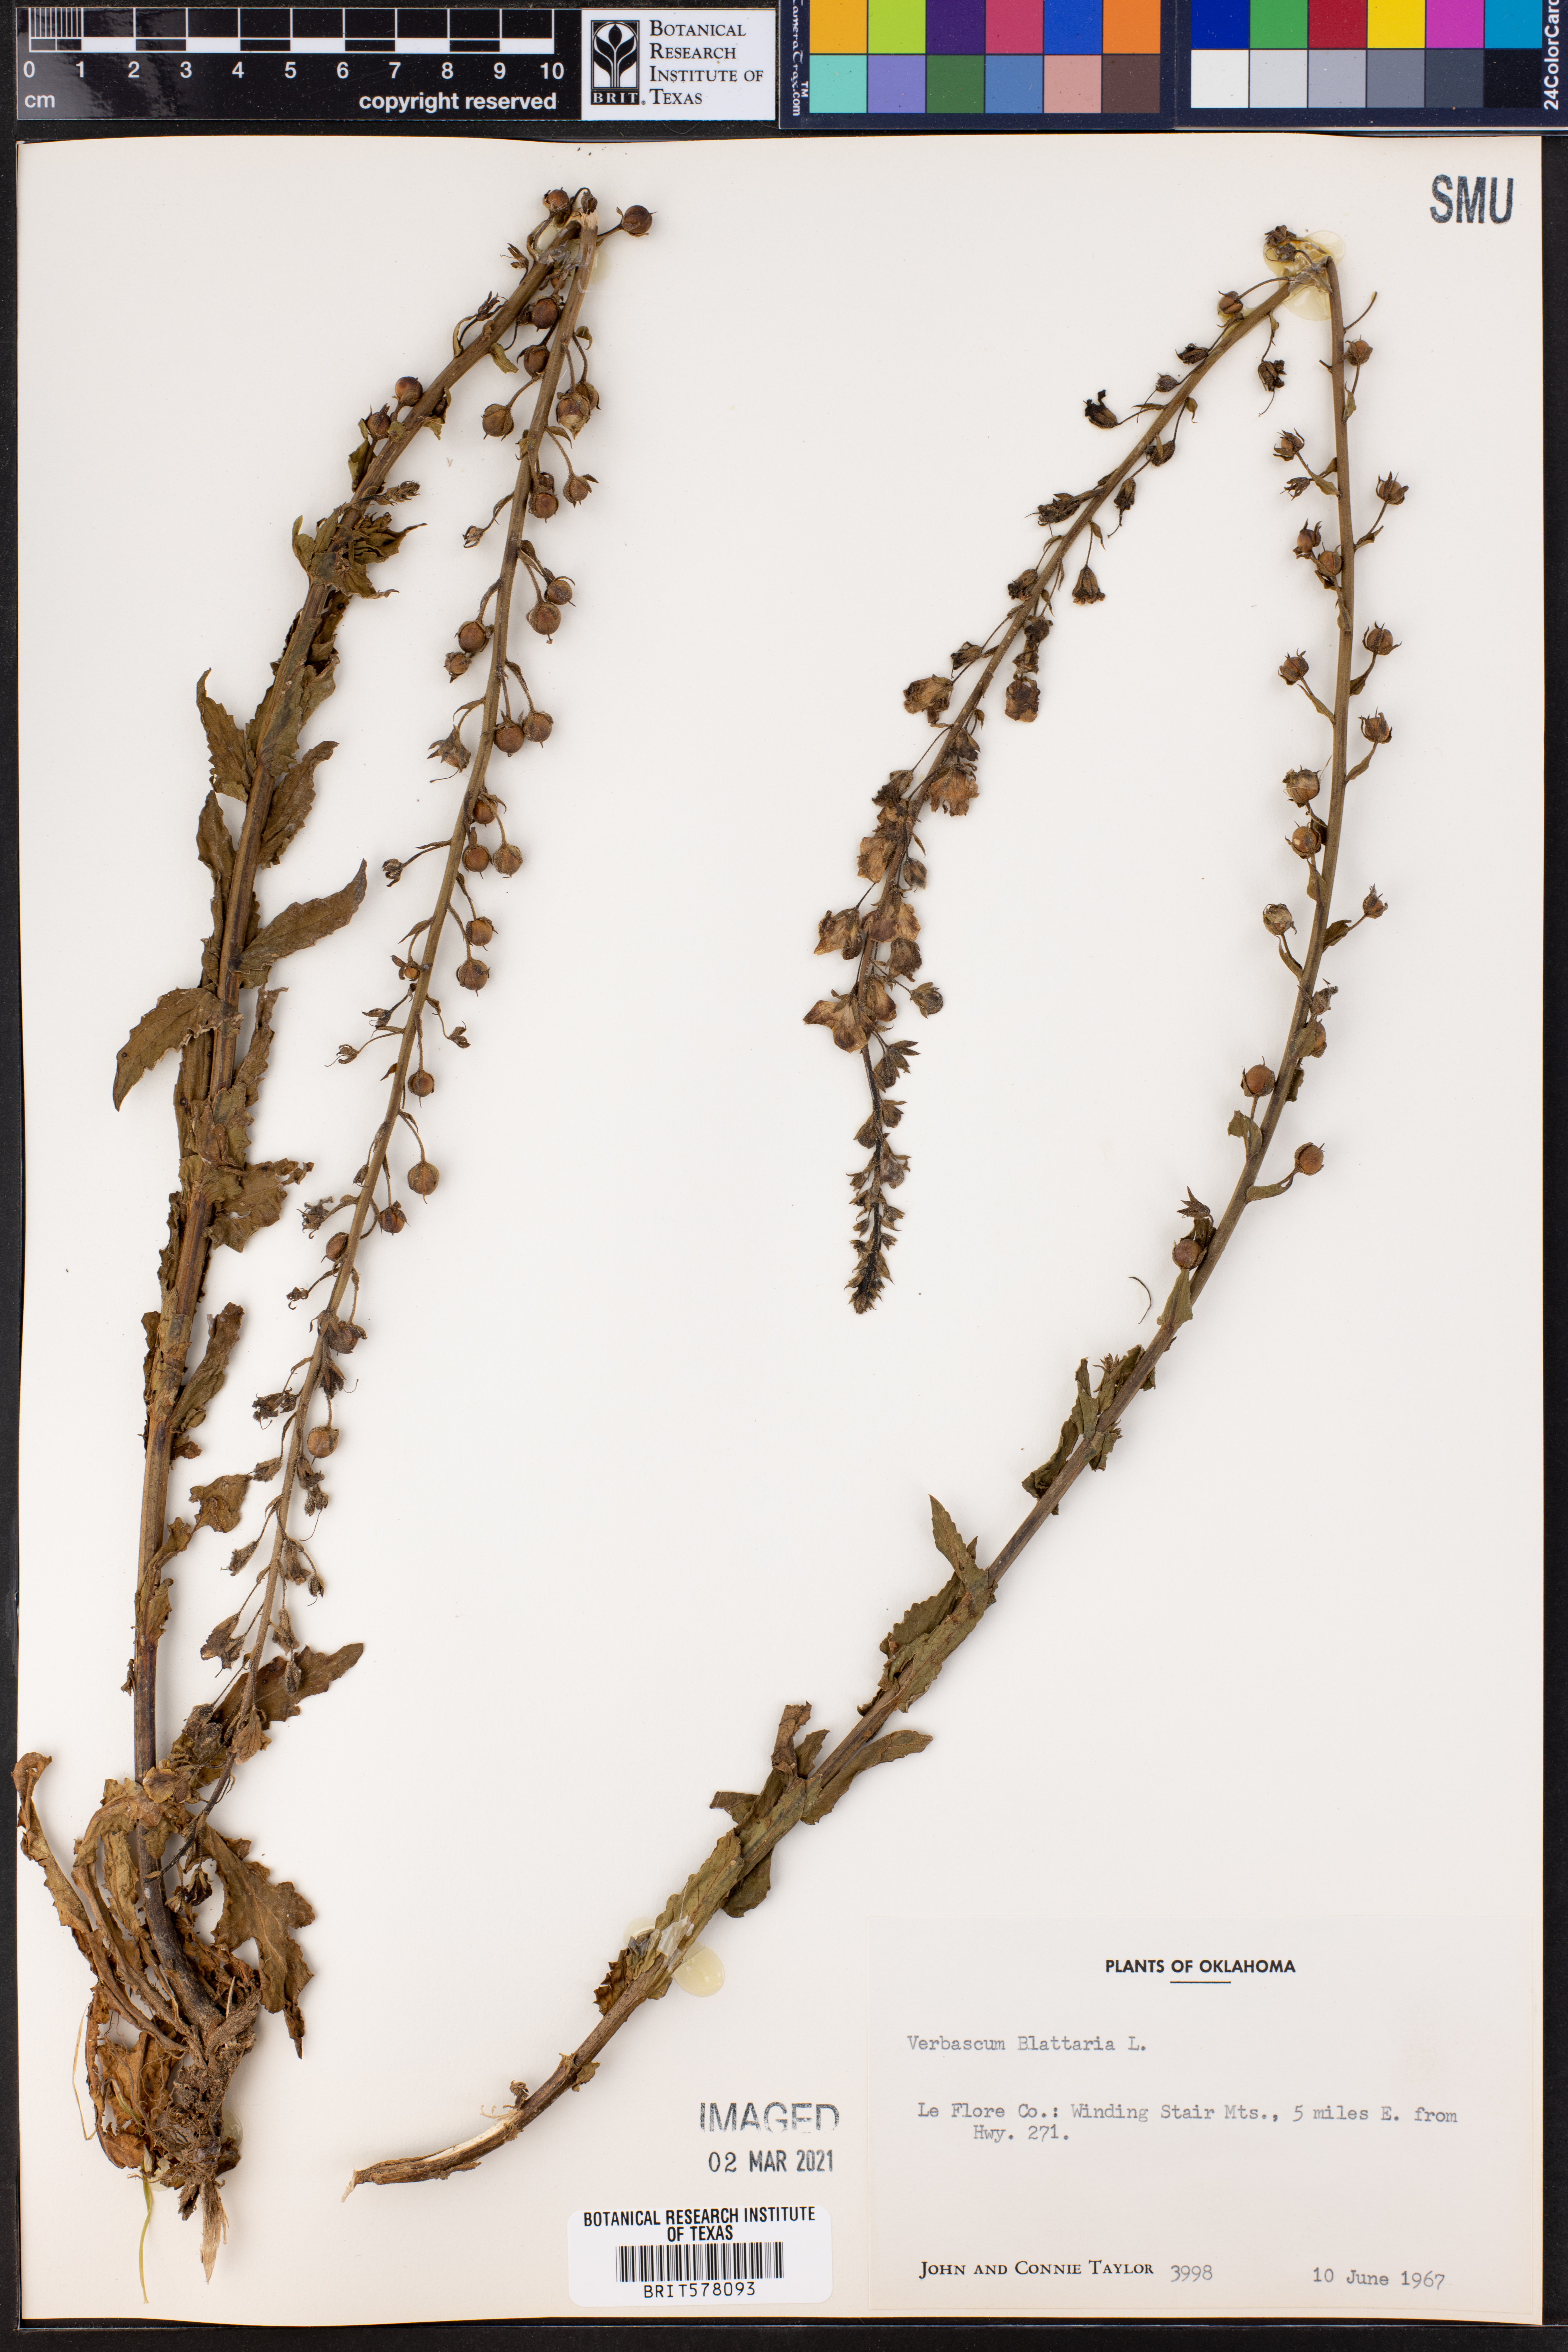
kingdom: Plantae
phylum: Tracheophyta
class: Magnoliopsida
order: Lamiales
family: Scrophulariaceae
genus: Verbascum
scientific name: Verbascum blattaria
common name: Moth mullein
